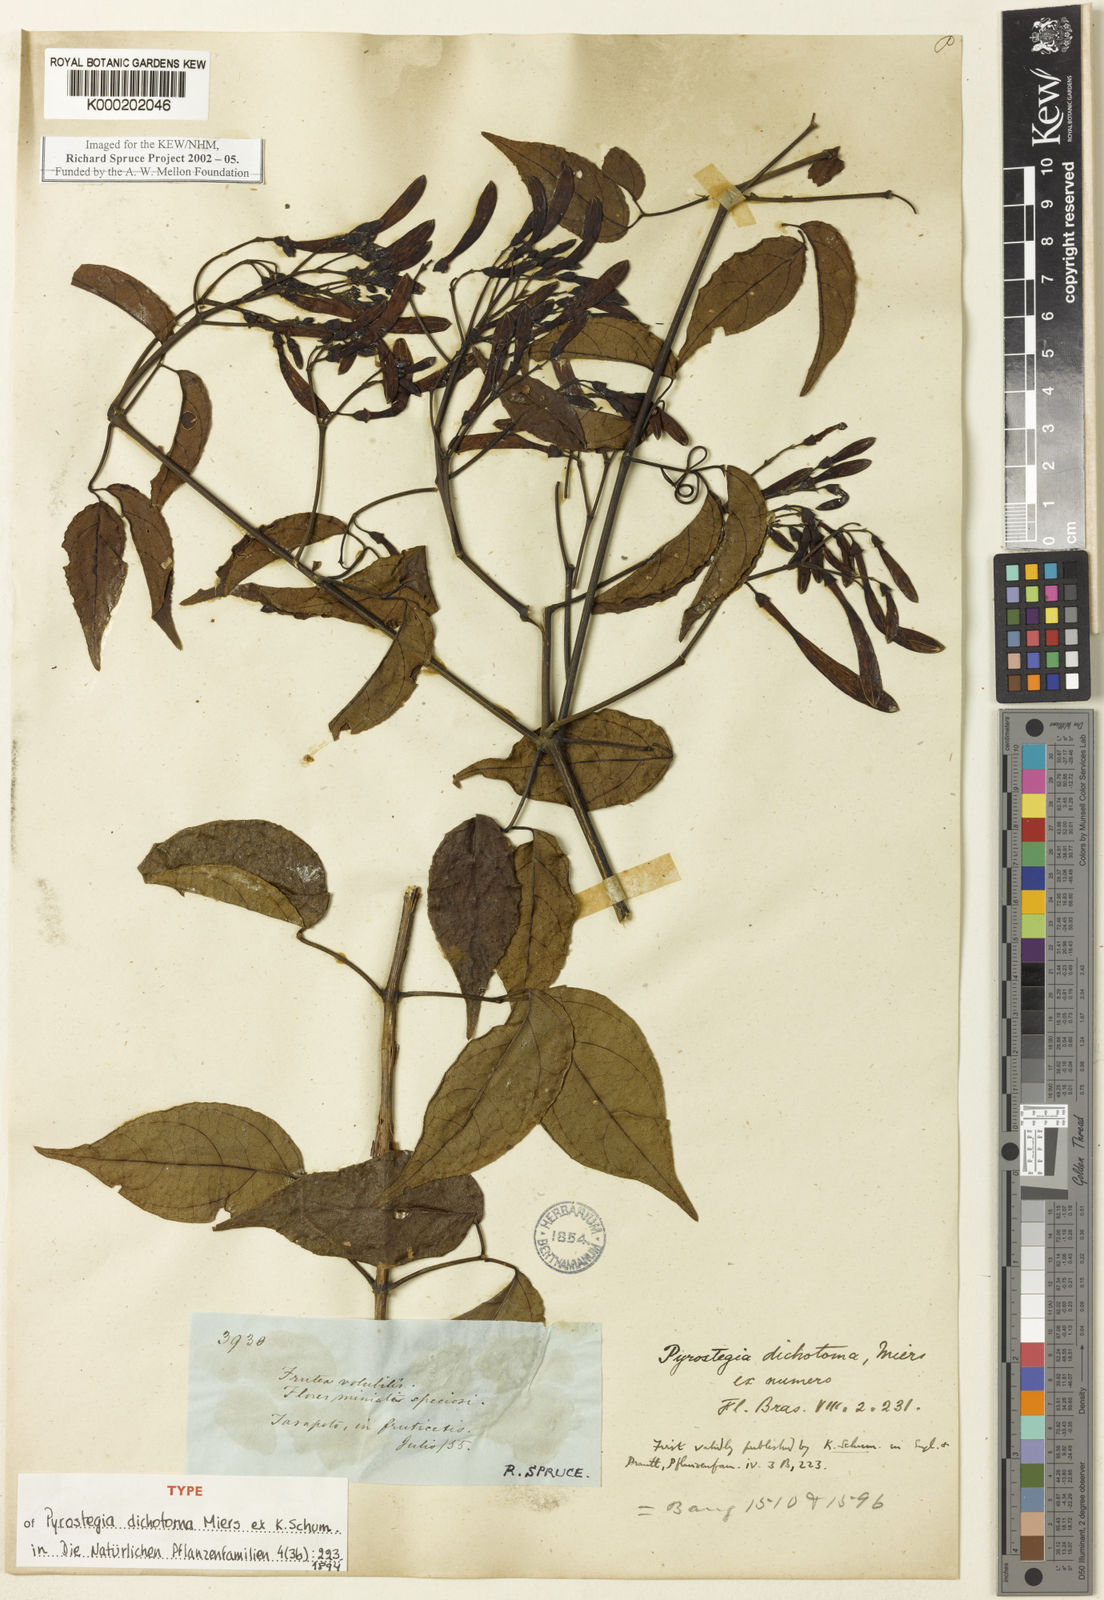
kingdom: Plantae
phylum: Tracheophyta
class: Magnoliopsida
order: Lamiales
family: Bignoniaceae
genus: Pyrostegia
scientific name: Pyrostegia
